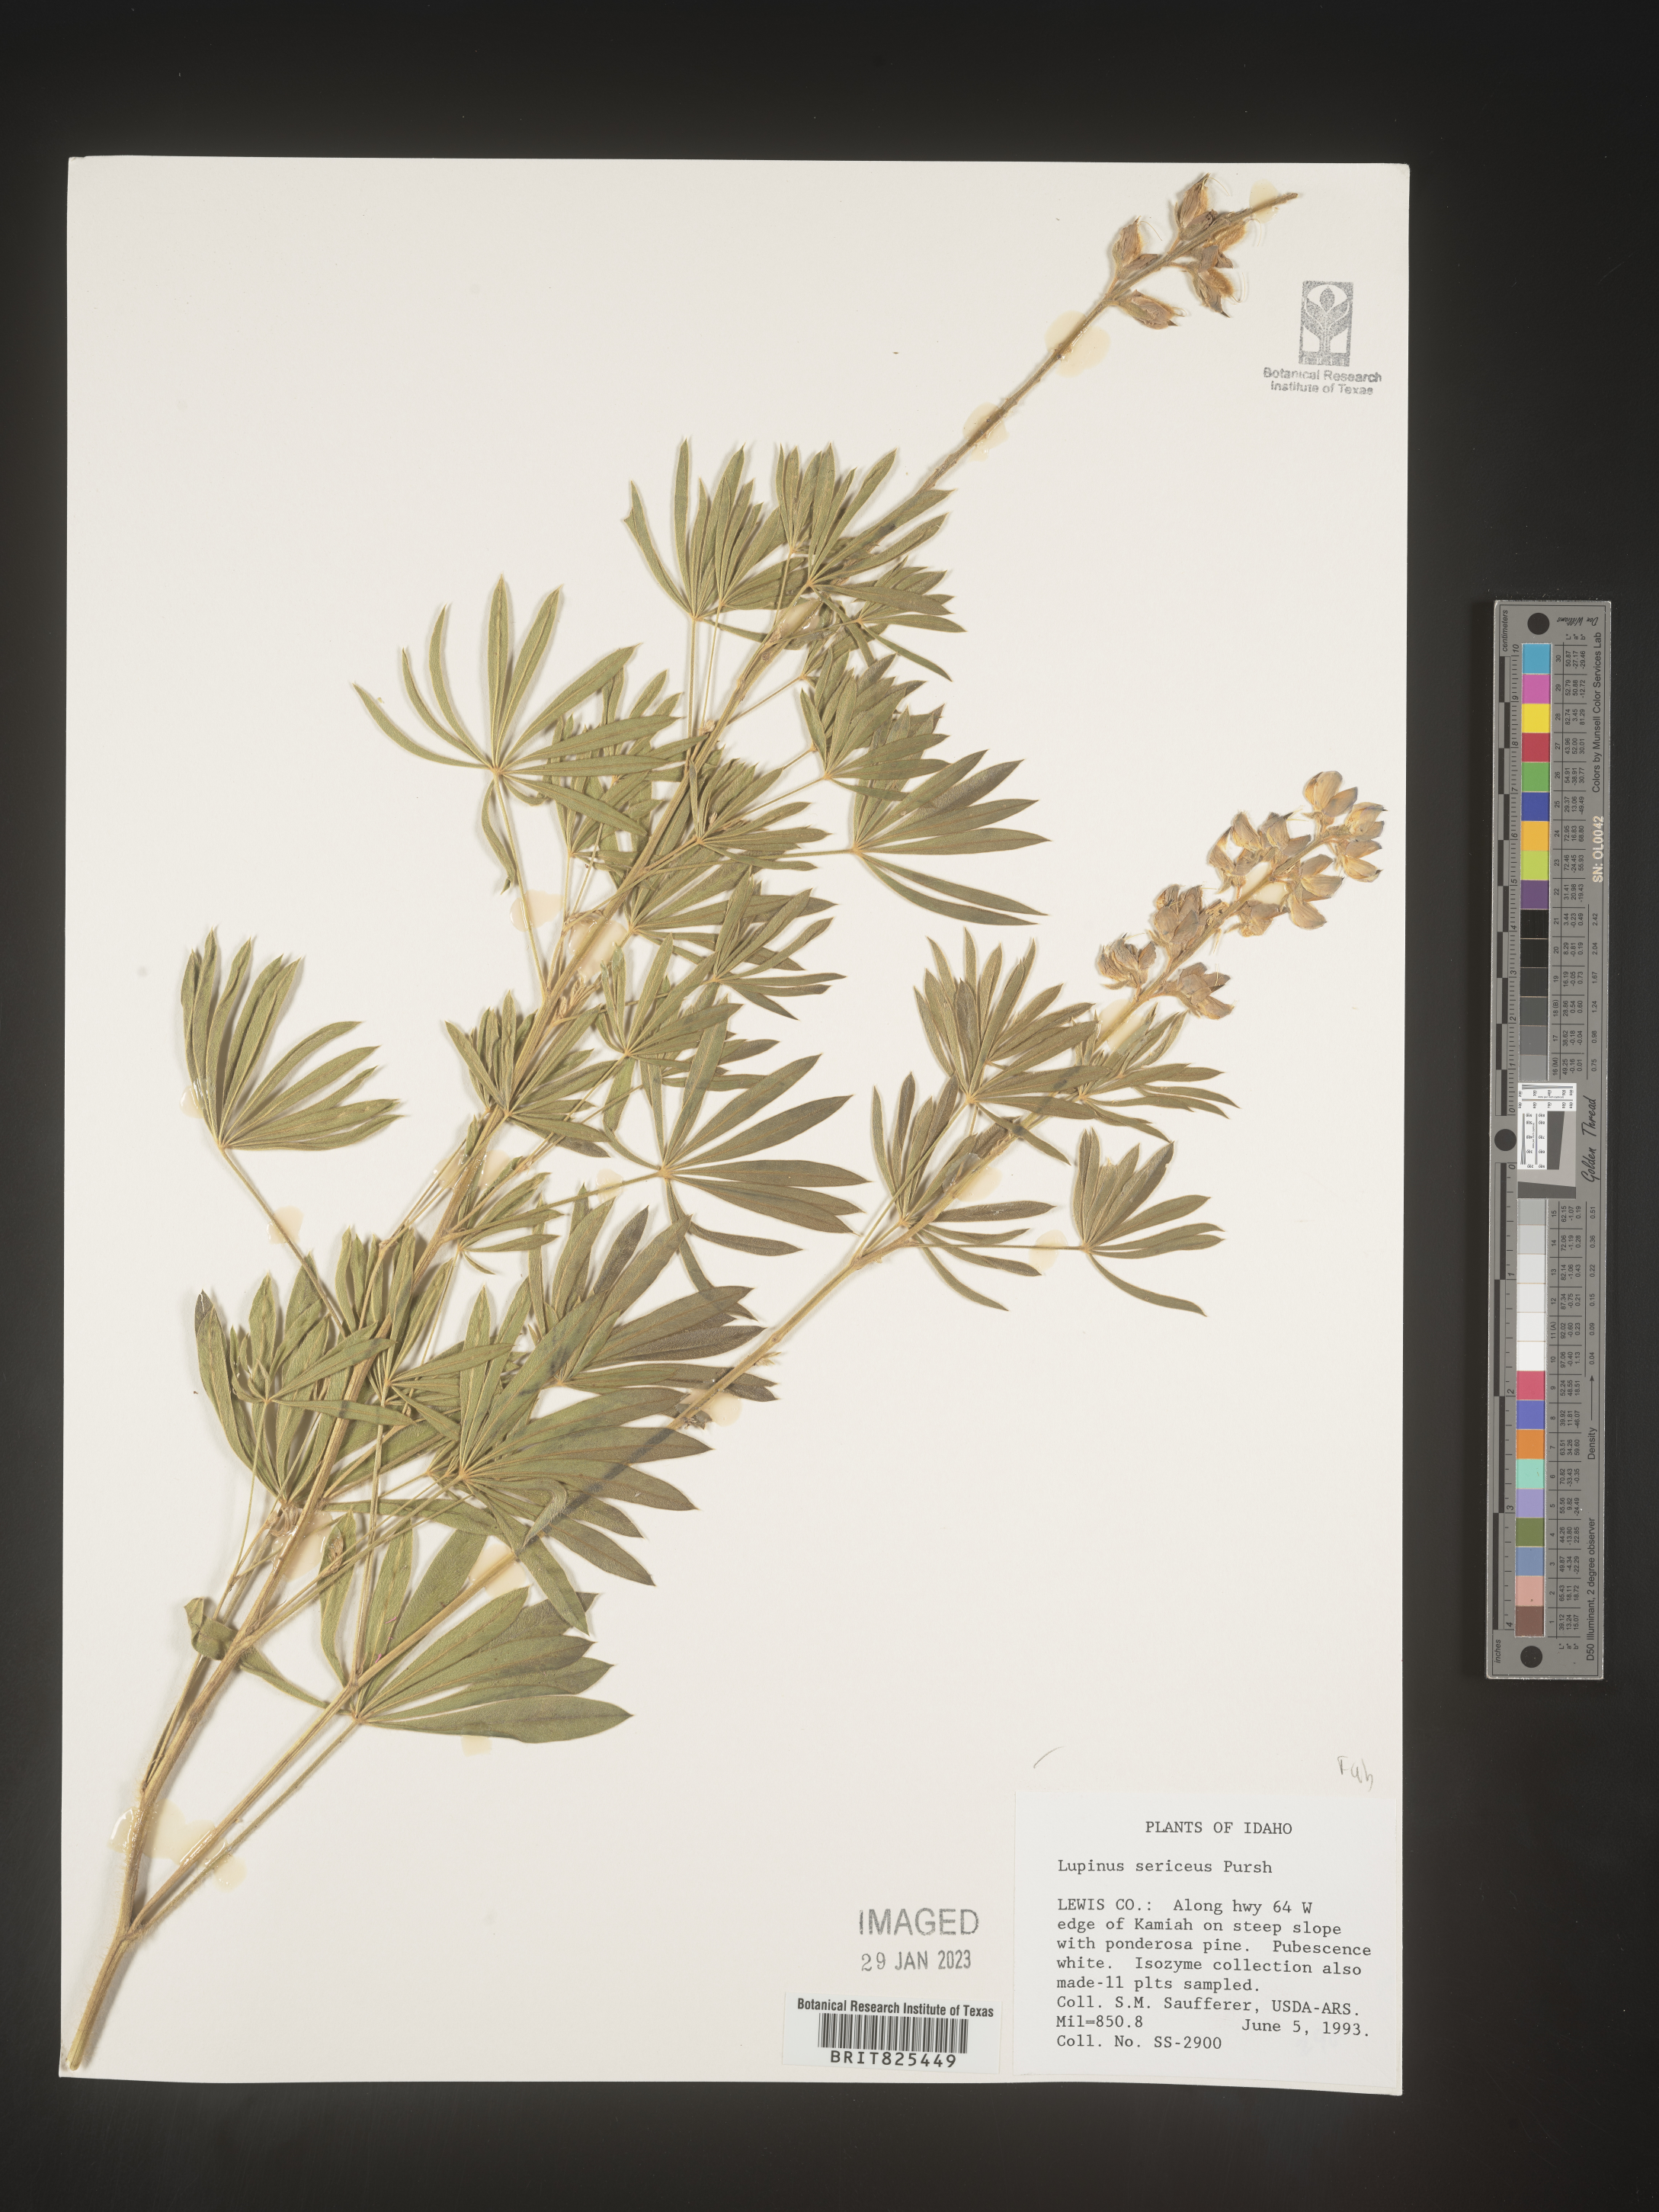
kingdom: Plantae
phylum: Tracheophyta
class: Magnoliopsida
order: Fabales
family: Fabaceae
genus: Lupinus
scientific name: Lupinus sericeus
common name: Silky lupine
